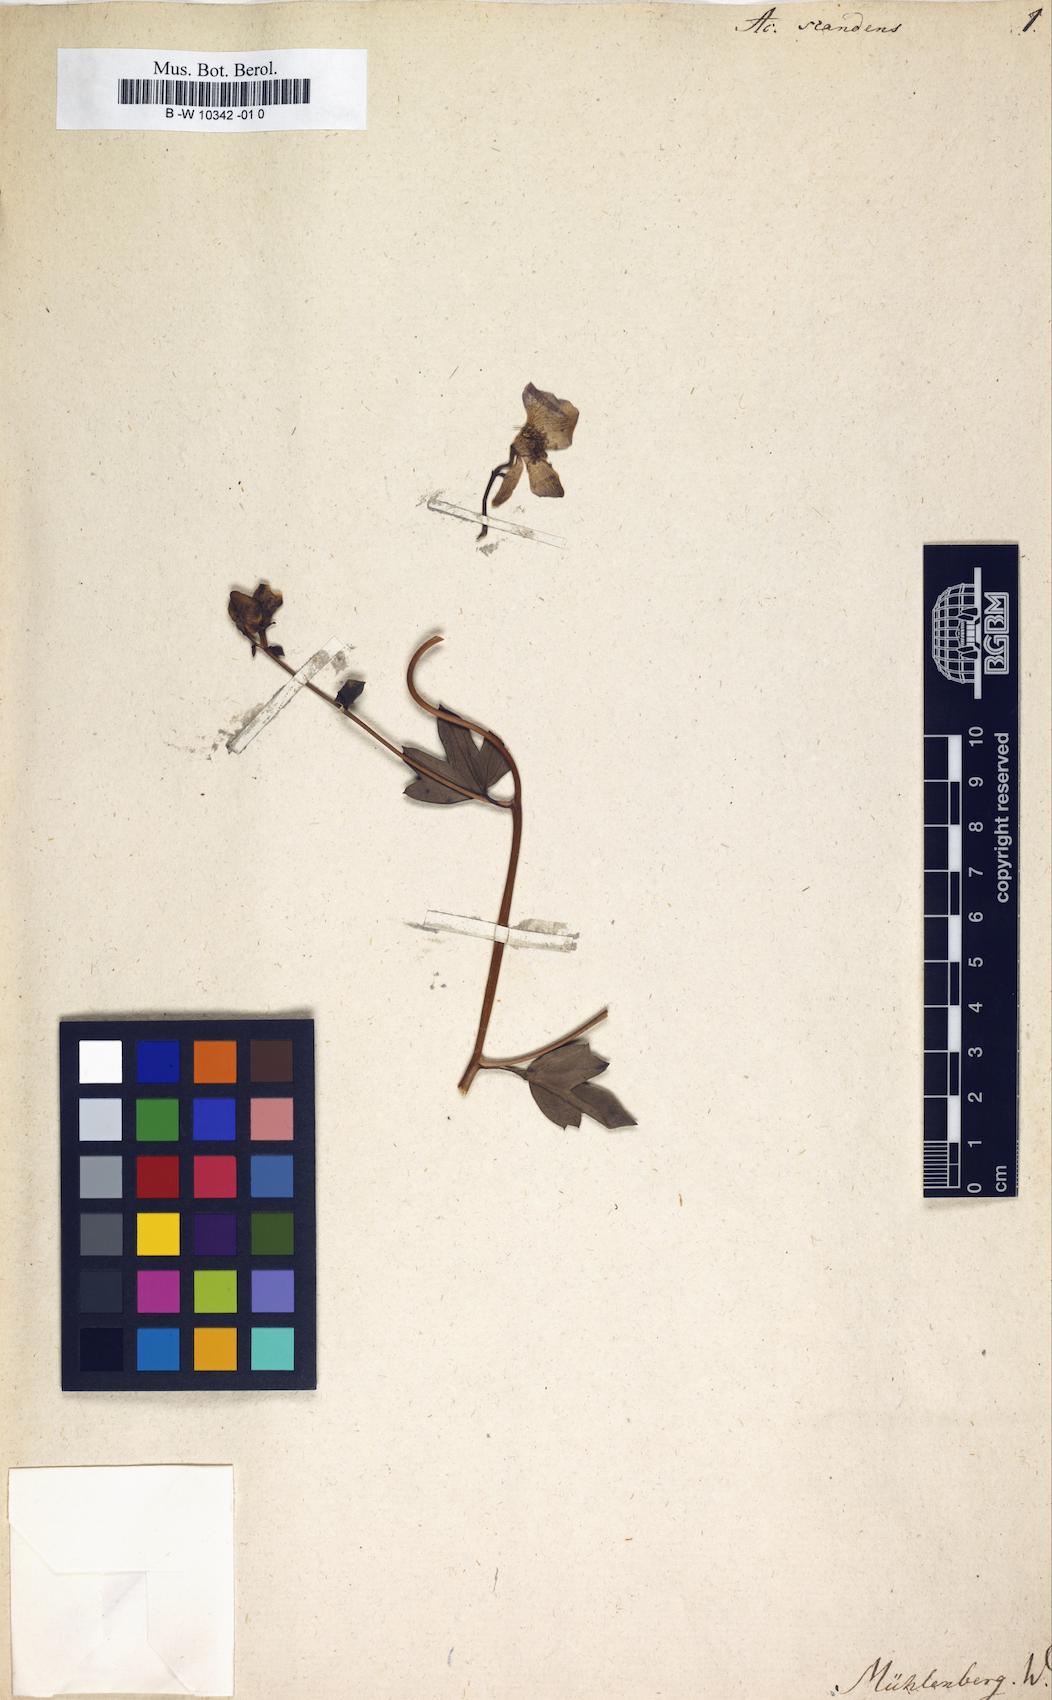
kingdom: Plantae
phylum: Tracheophyta
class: Magnoliopsida
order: Ranunculales
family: Ranunculaceae
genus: Aconitum
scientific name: Aconitum uncinatum
